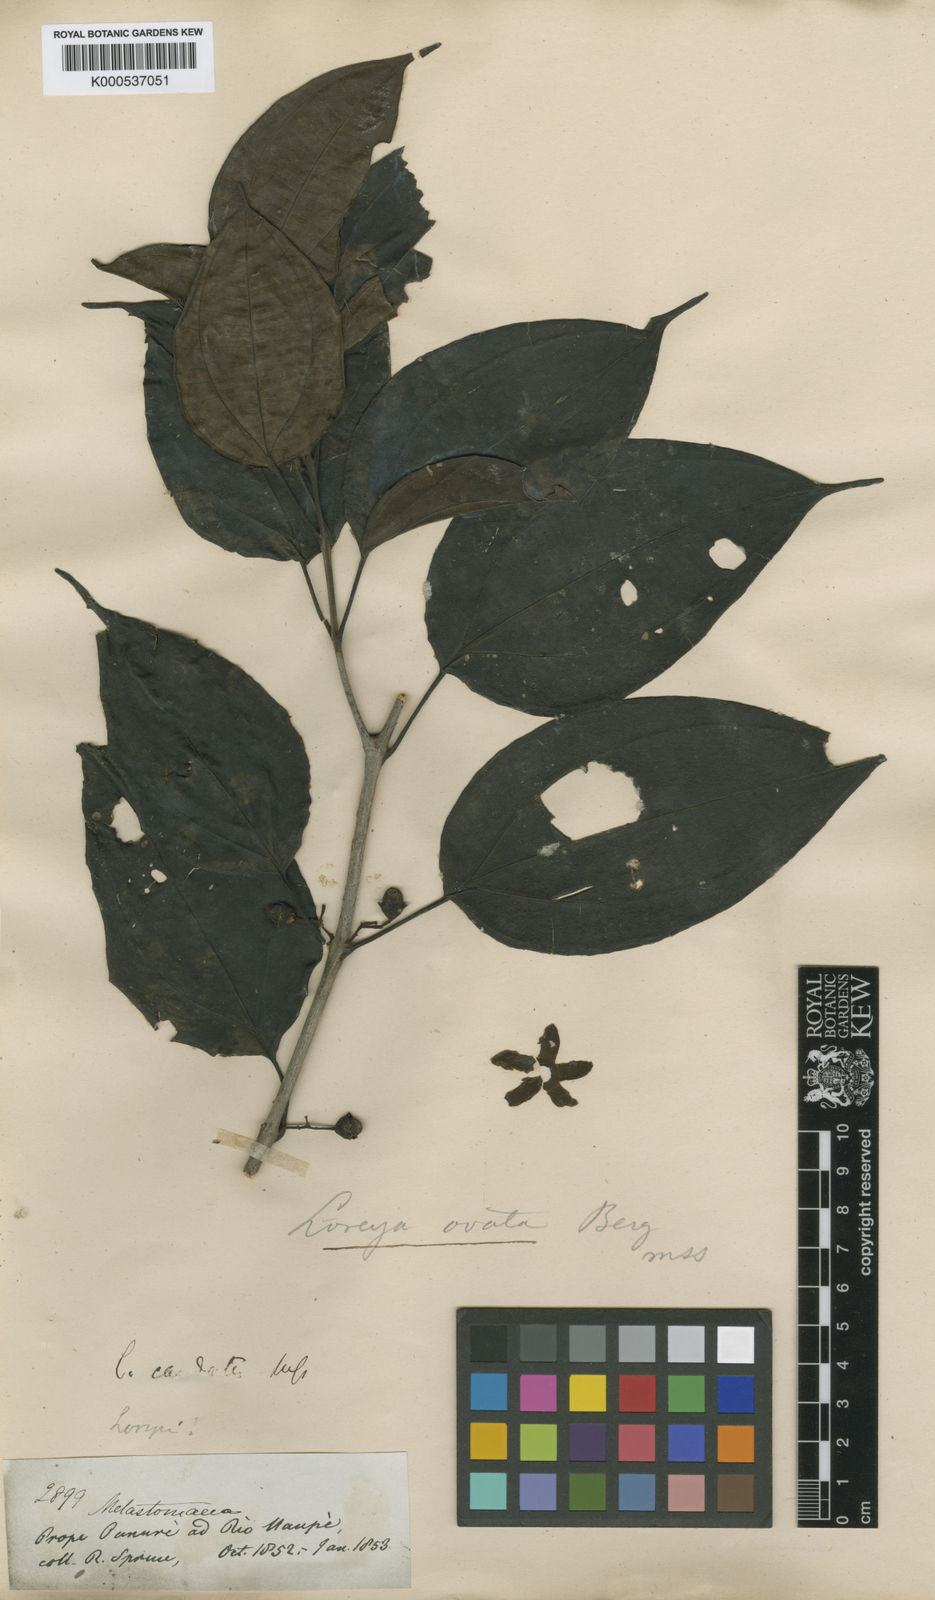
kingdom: Plantae
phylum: Tracheophyta
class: Magnoliopsida
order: Myrtales
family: Melastomataceae
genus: Bellucia
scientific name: Bellucia ovata
